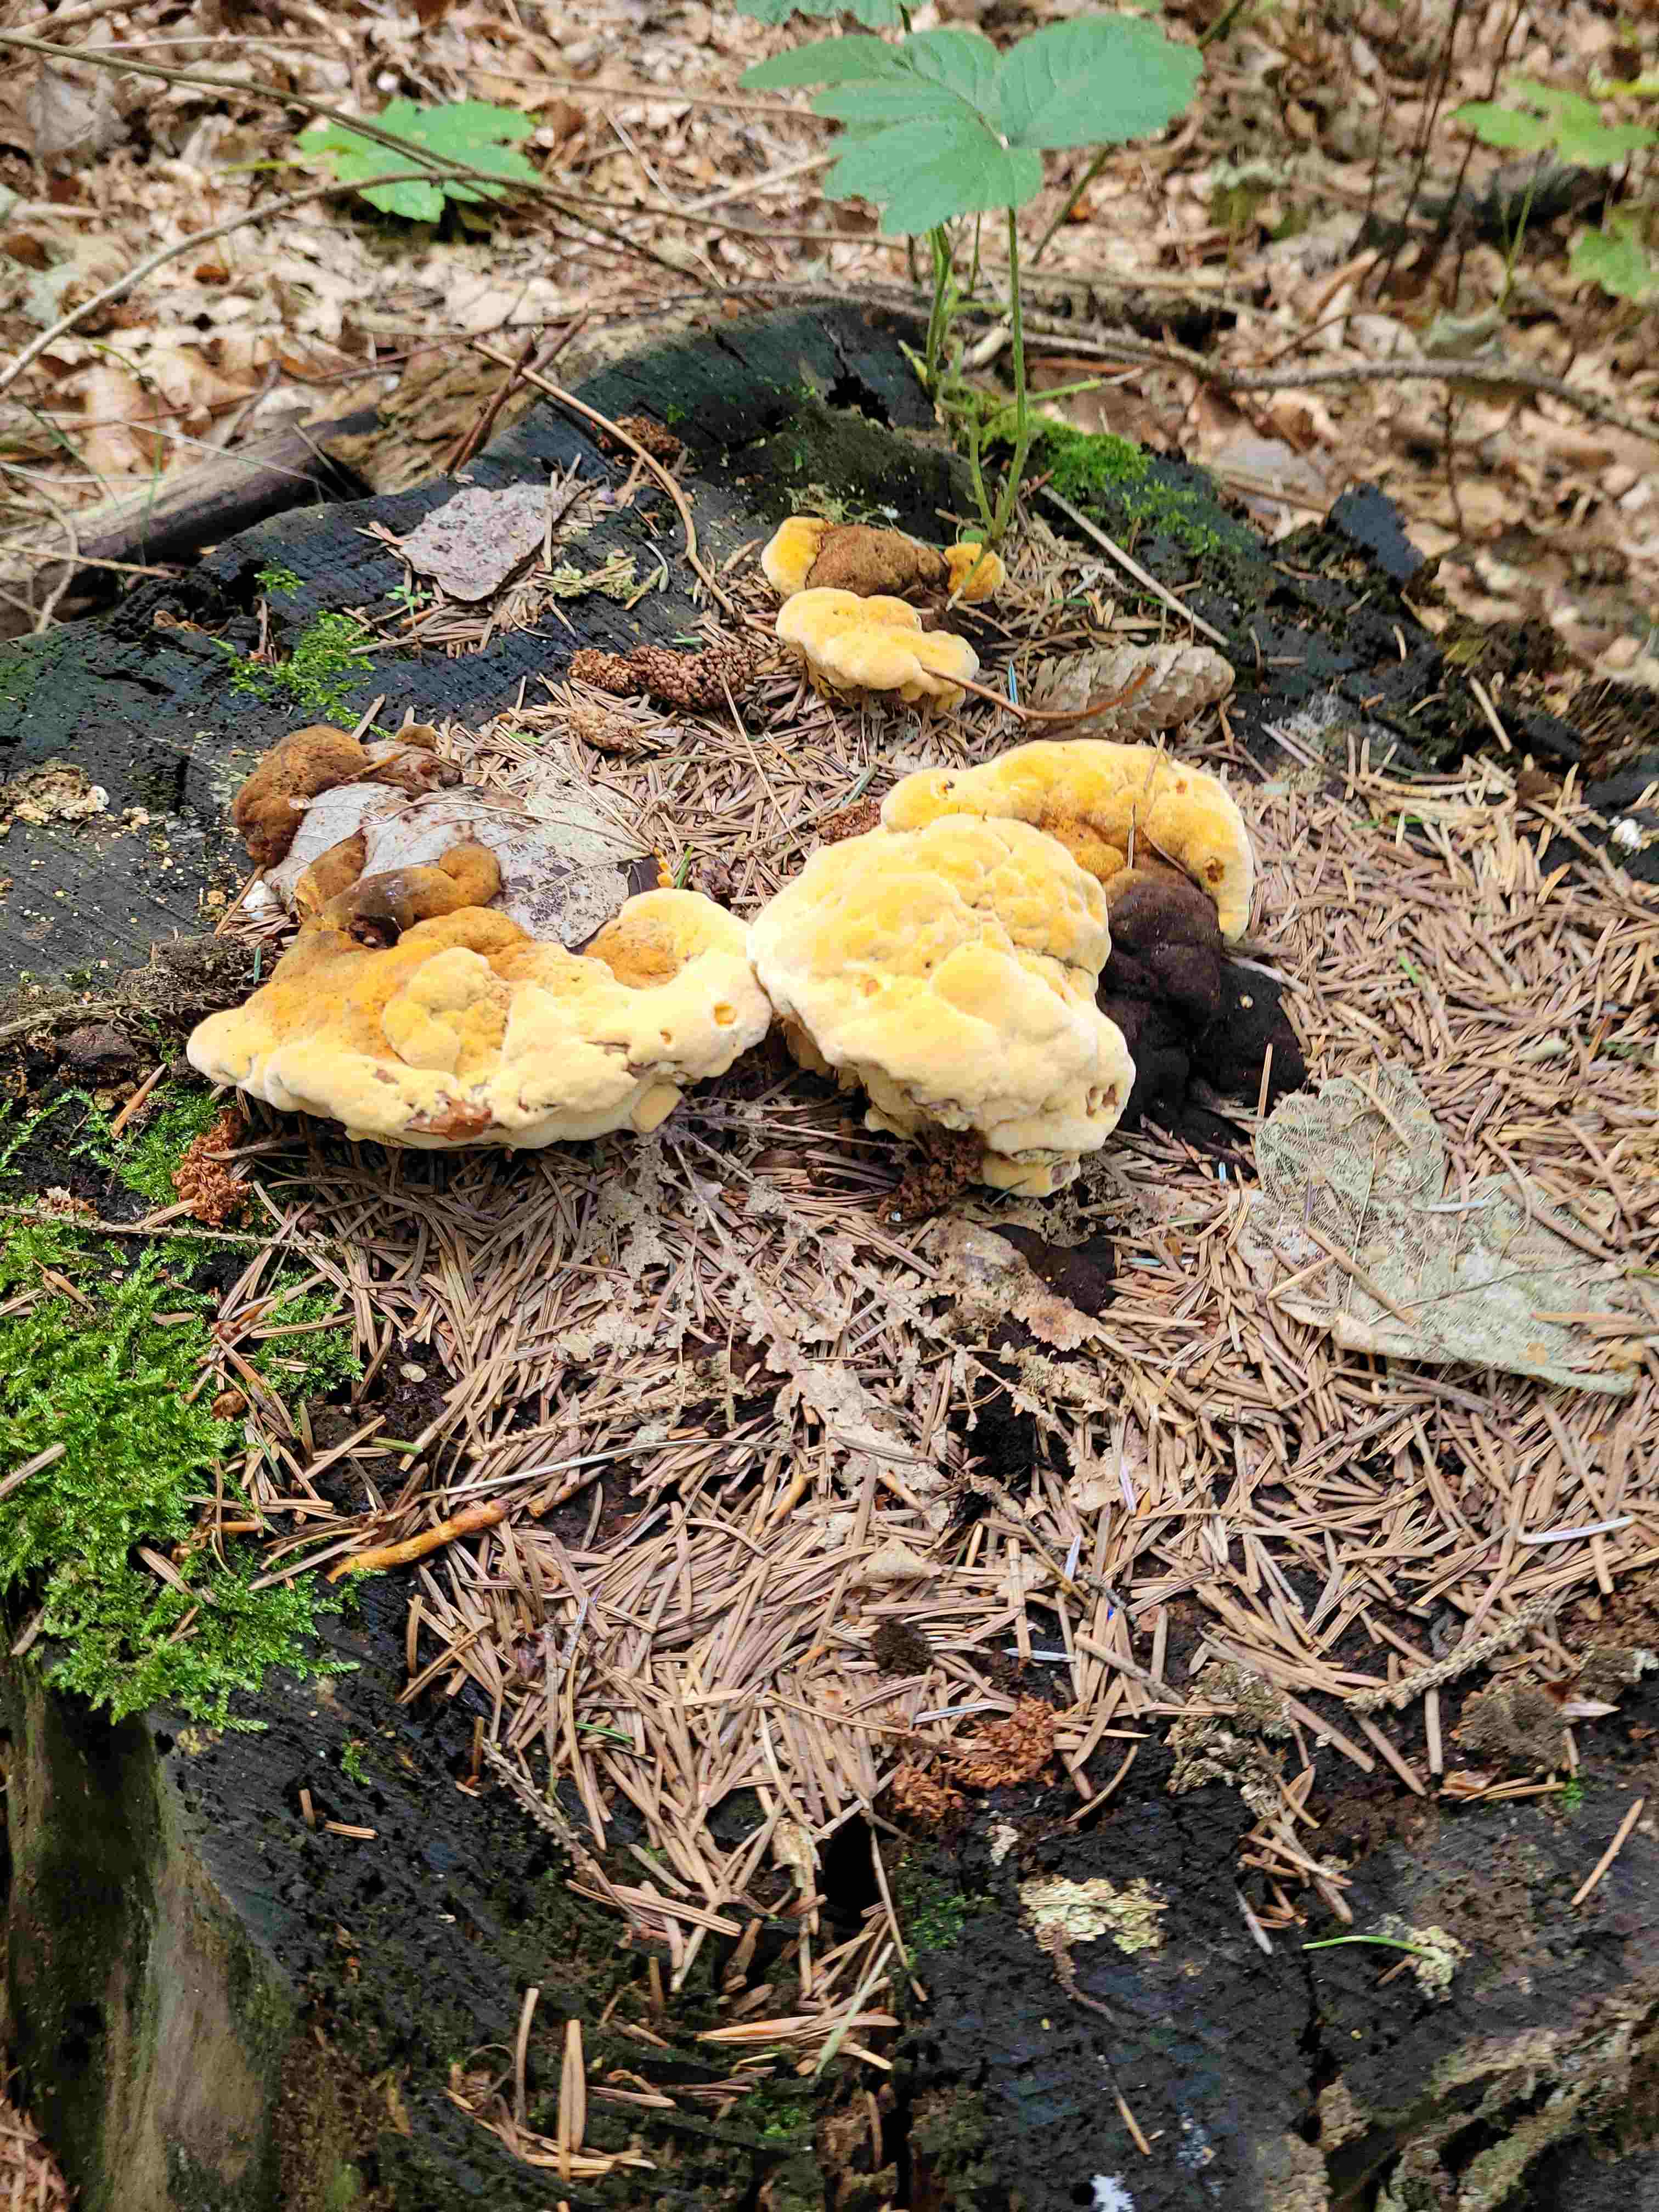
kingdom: Fungi
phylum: Basidiomycota
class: Agaricomycetes
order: Gloeophyllales
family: Gloeophyllaceae
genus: Gloeophyllum
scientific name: Gloeophyllum odoratum
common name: duftende korkhat
